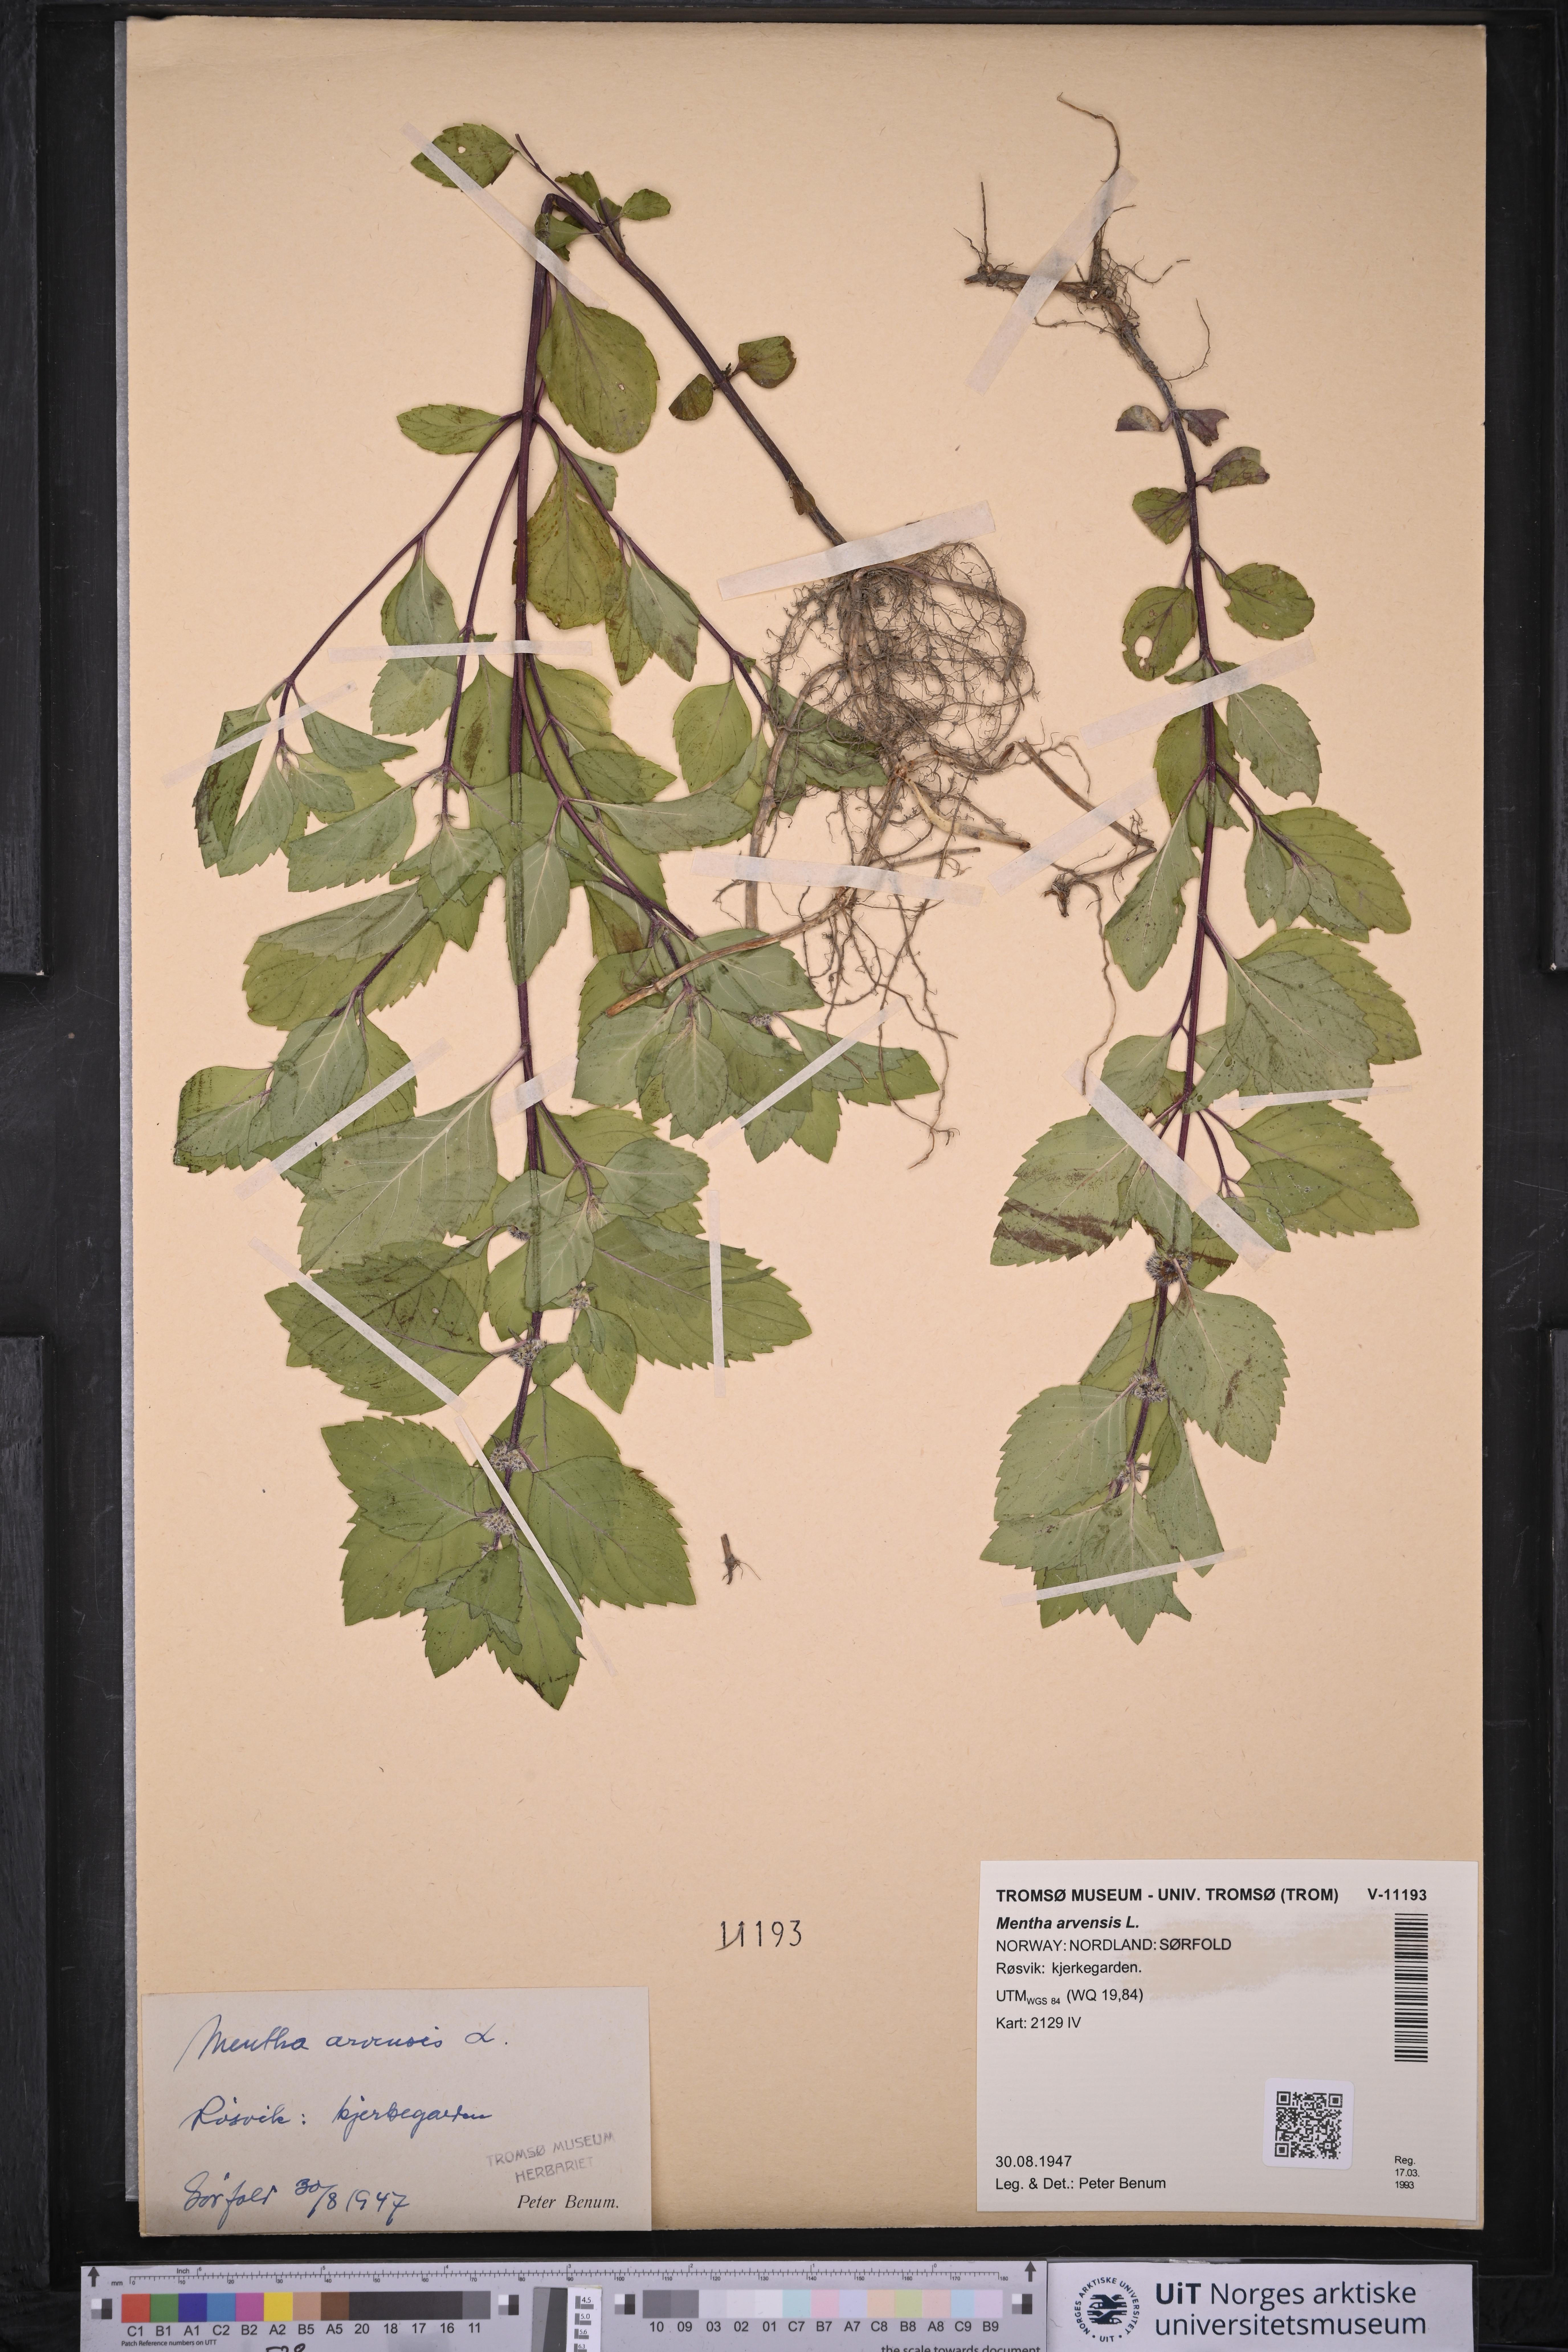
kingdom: Plantae
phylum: Tracheophyta
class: Magnoliopsida
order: Lamiales
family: Lamiaceae
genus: Mentha
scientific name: Mentha arvensis
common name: Corn mint
